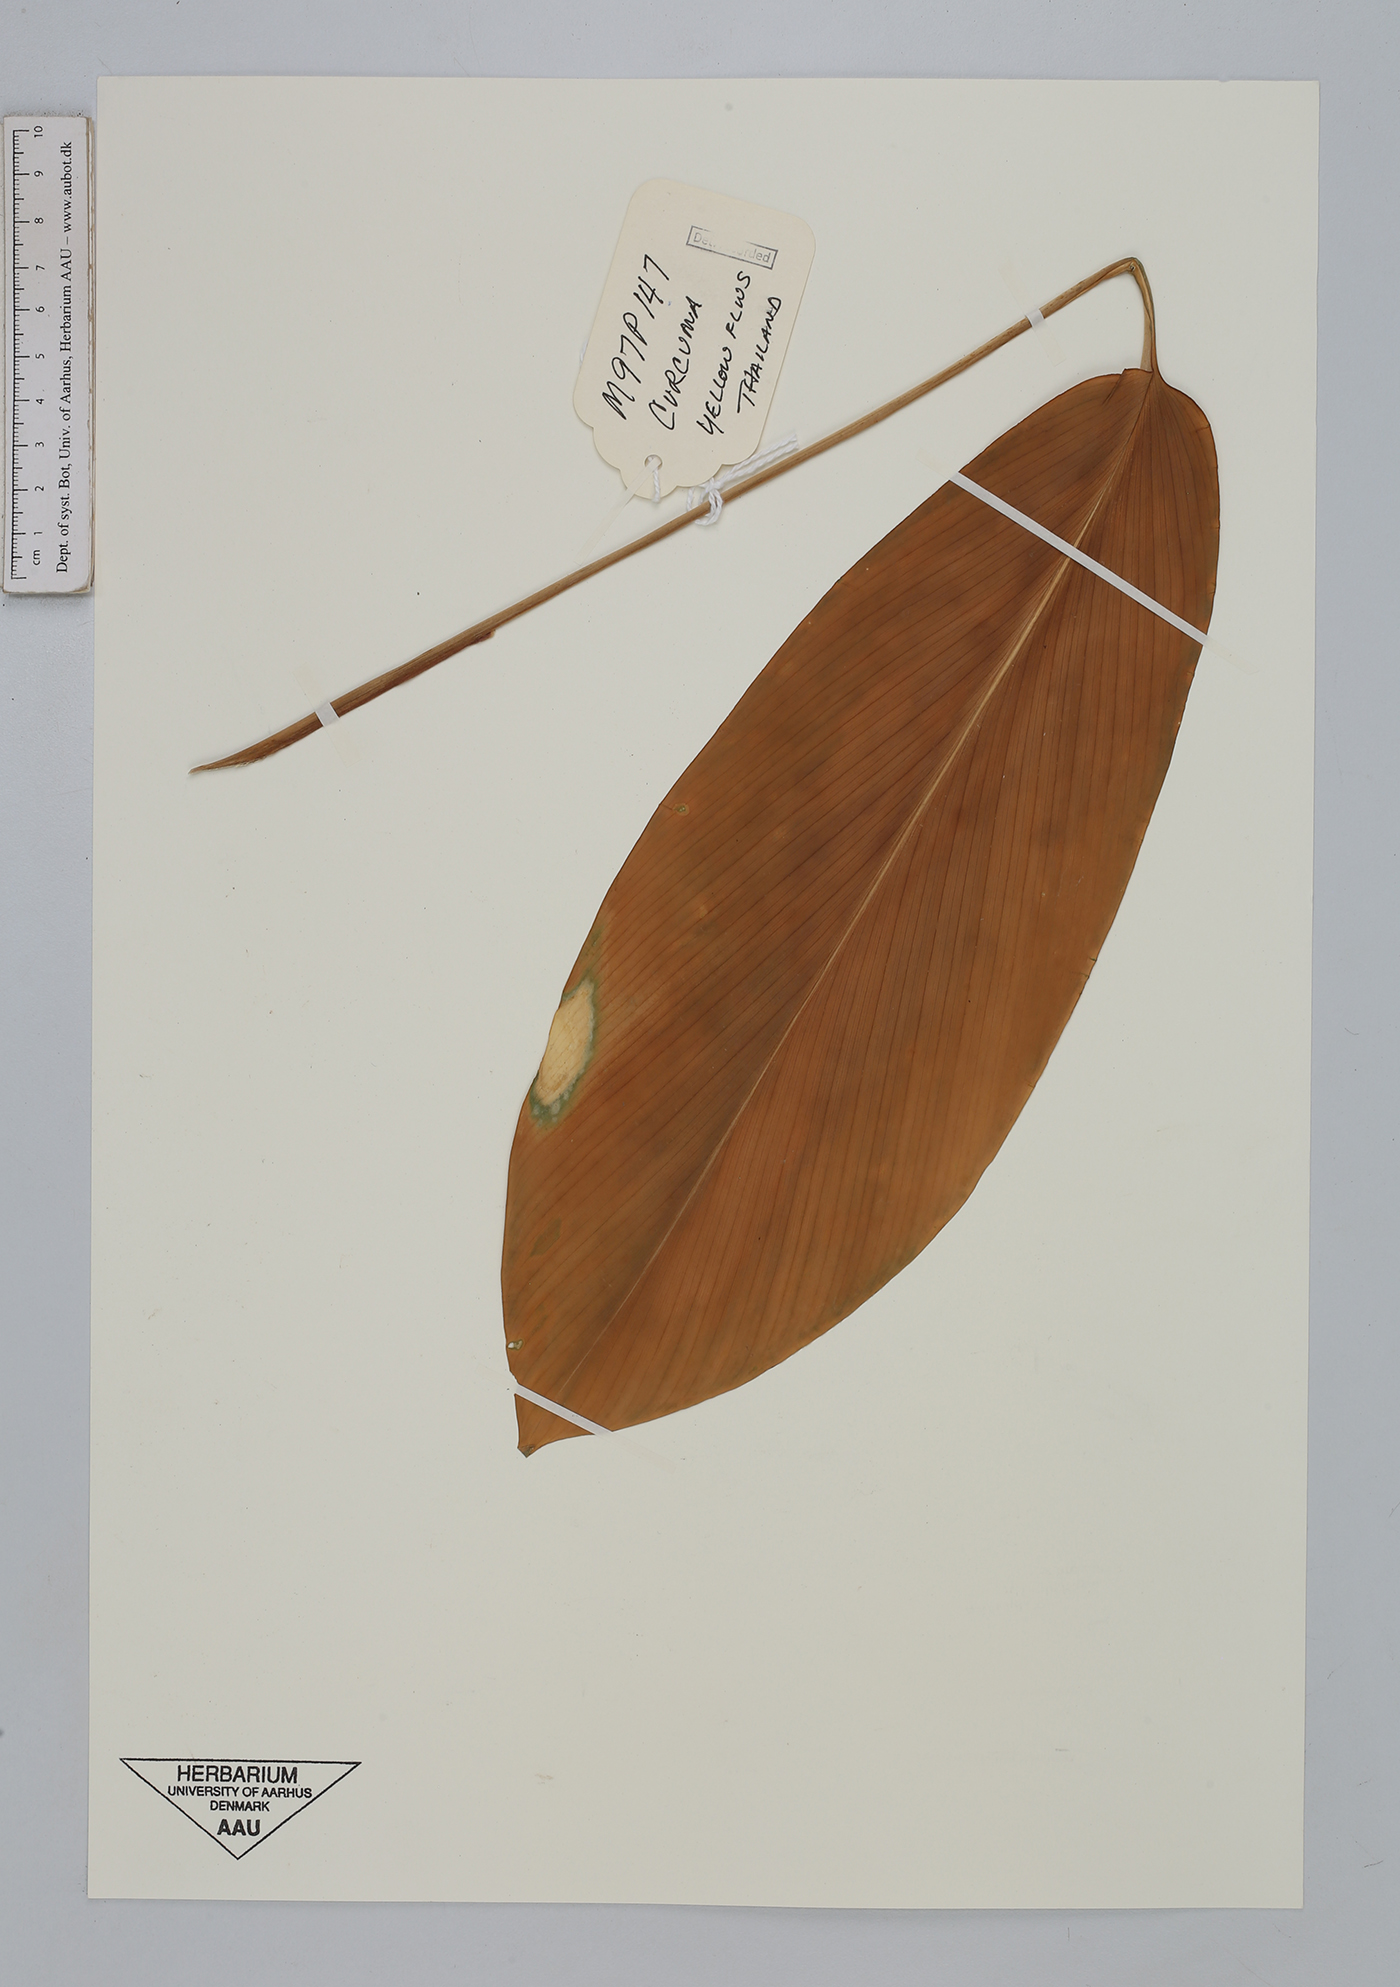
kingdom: Plantae
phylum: Tracheophyta
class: Liliopsida
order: Zingiberales
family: Zingiberaceae
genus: Curcuma
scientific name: Curcuma
